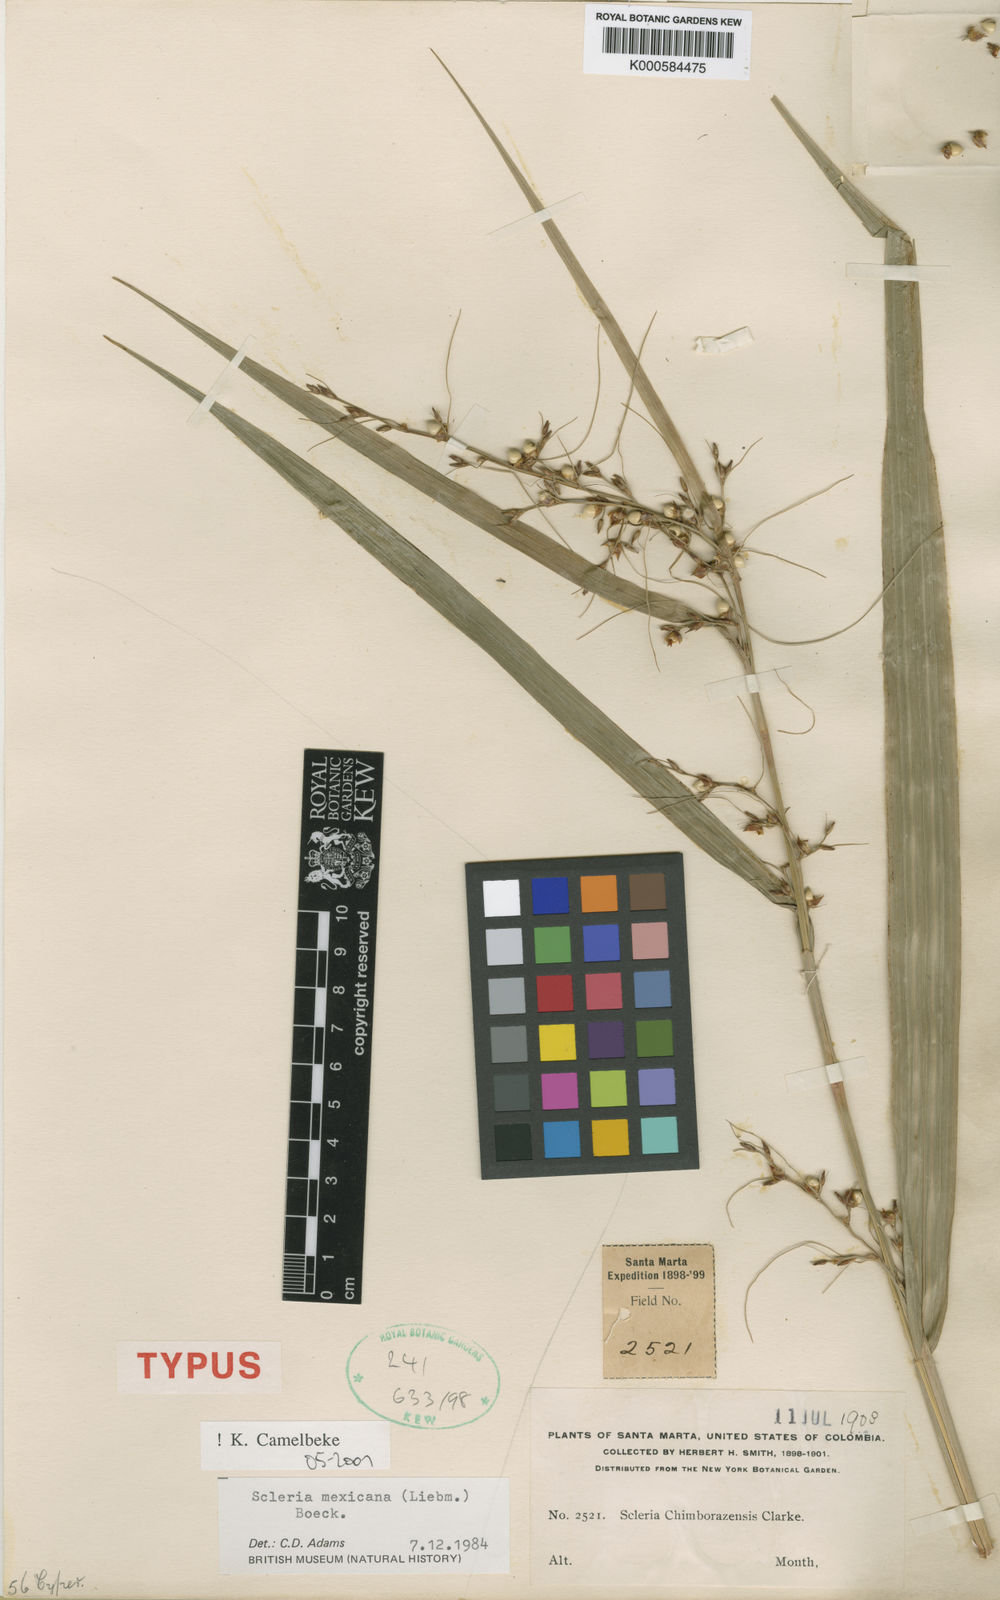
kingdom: Plantae
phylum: Tracheophyta
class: Liliopsida
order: Poales
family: Cyperaceae
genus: Scleria
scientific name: Scleria sororia
